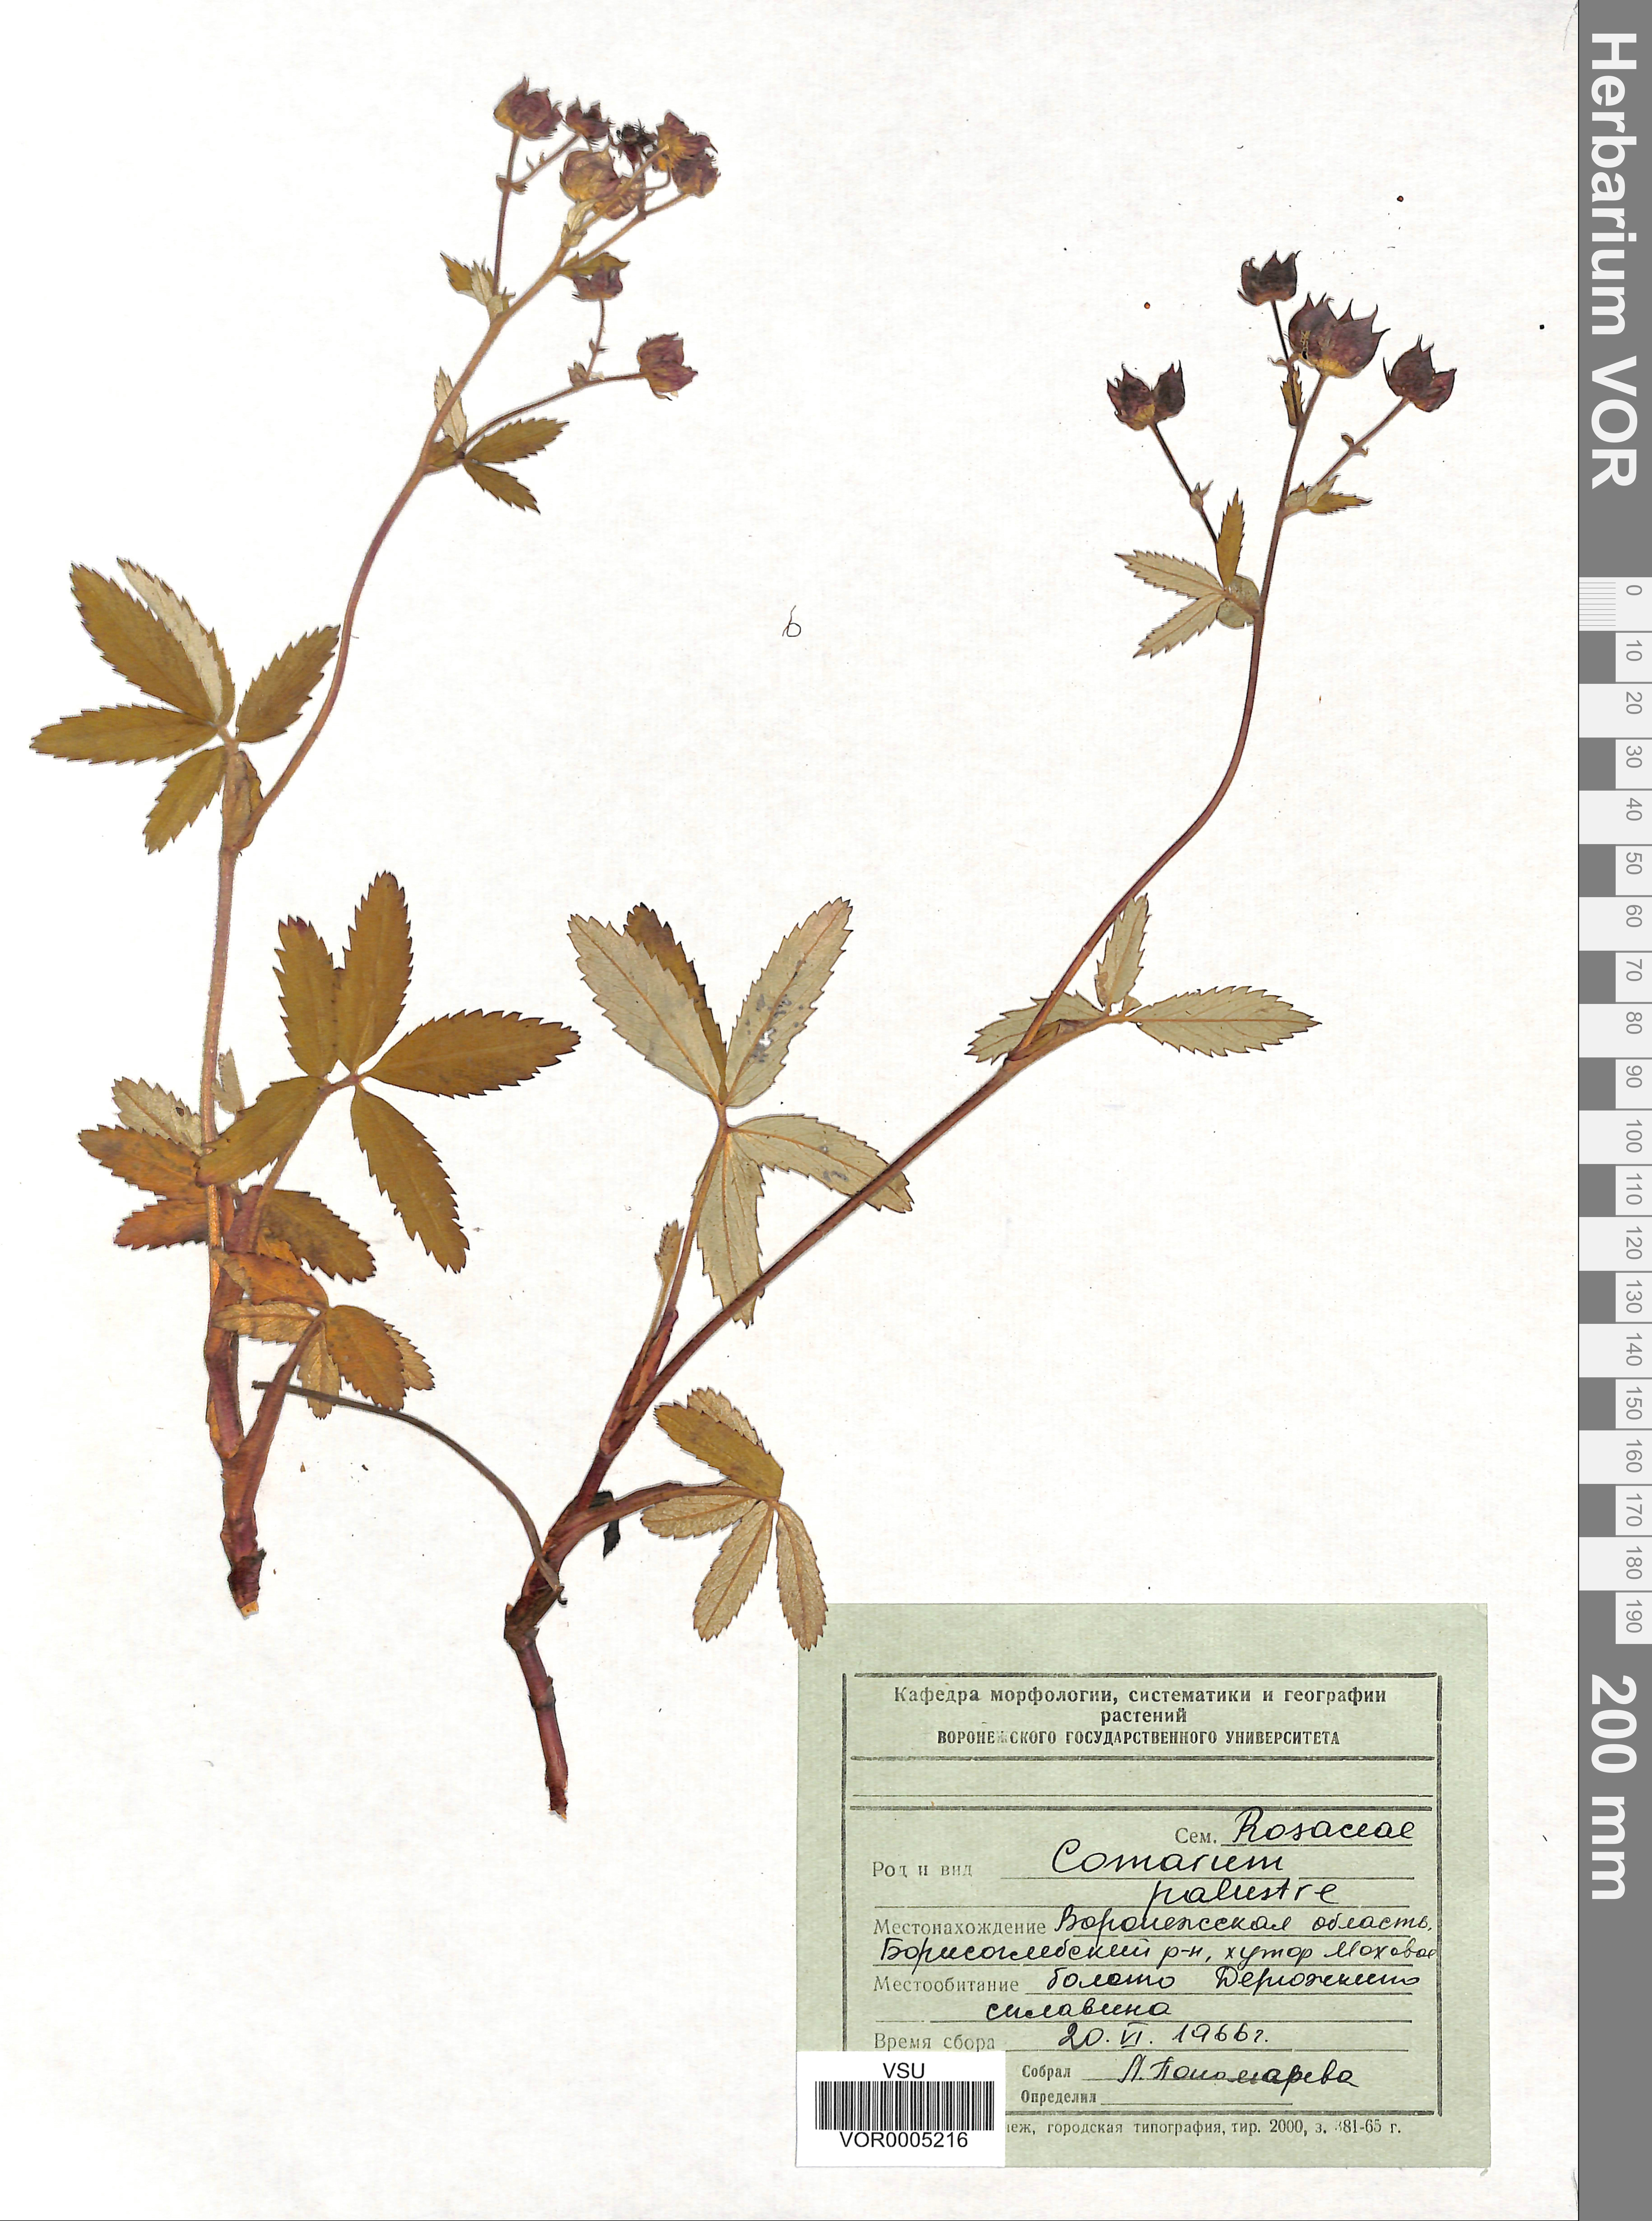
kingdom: Plantae
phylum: Tracheophyta
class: Magnoliopsida
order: Rosales
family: Rosaceae
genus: Comarum
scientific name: Comarum palustre
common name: Marsh cinquefoil
